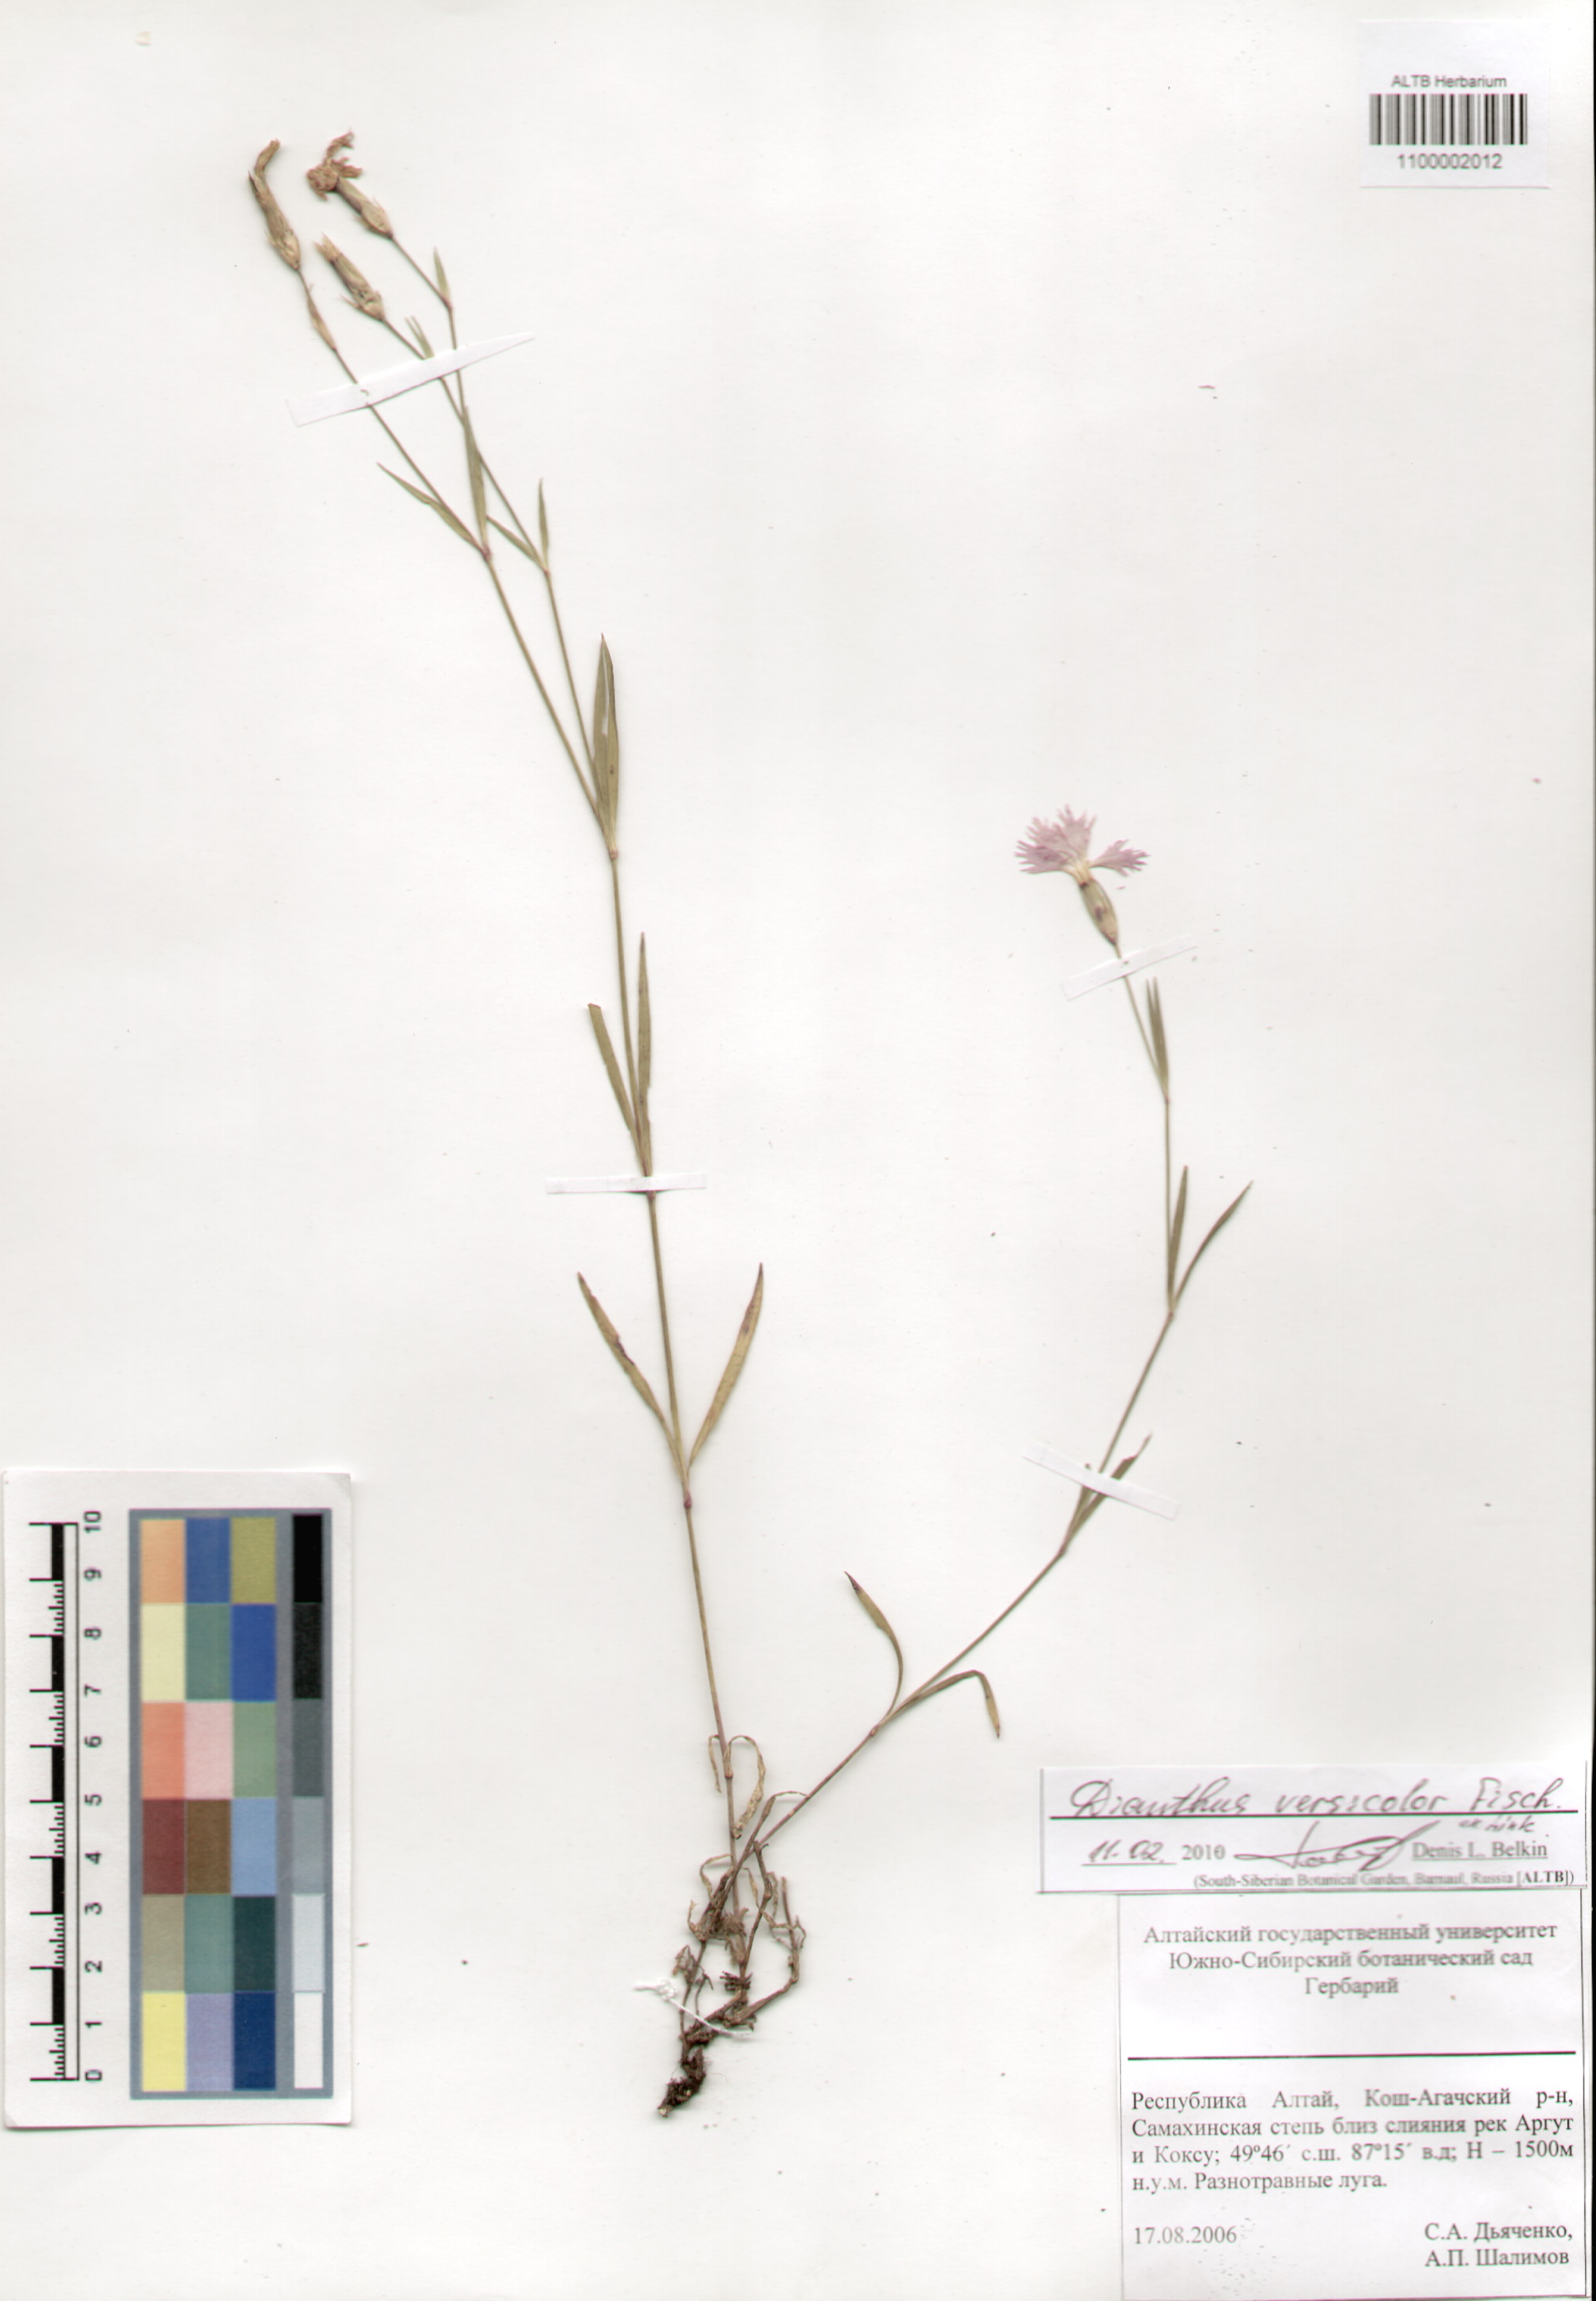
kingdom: Plantae
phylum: Tracheophyta
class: Magnoliopsida
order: Caryophyllales
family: Caryophyllaceae
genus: Dianthus
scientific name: Dianthus chinensis
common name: Rainbow pink
